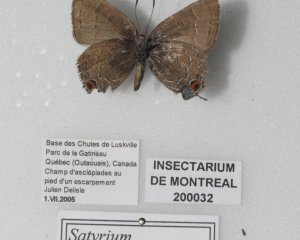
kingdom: Animalia
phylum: Arthropoda
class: Insecta
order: Lepidoptera
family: Lycaenidae
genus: Satyrium
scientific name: Satyrium calanus
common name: Banded Hairstreak
